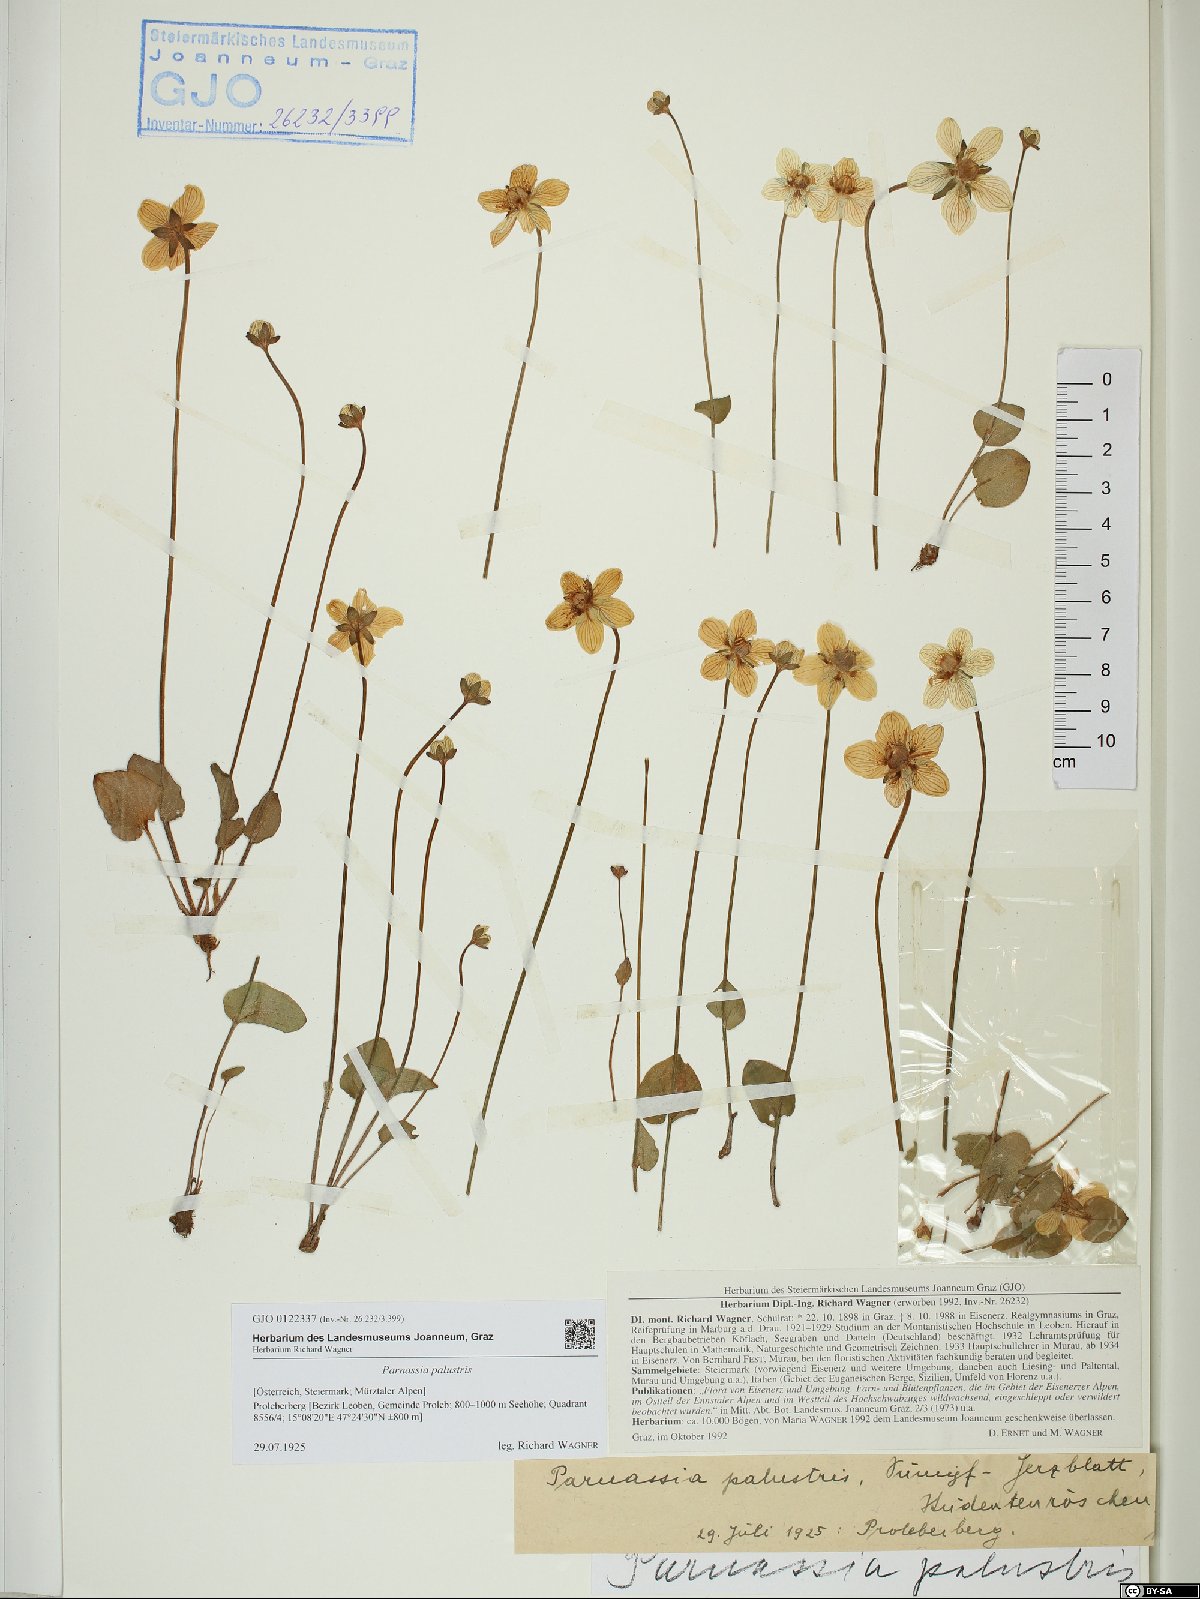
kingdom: Plantae
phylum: Tracheophyta
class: Magnoliopsida
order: Celastrales
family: Parnassiaceae
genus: Parnassia
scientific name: Parnassia palustris
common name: Grass-of-parnassus
